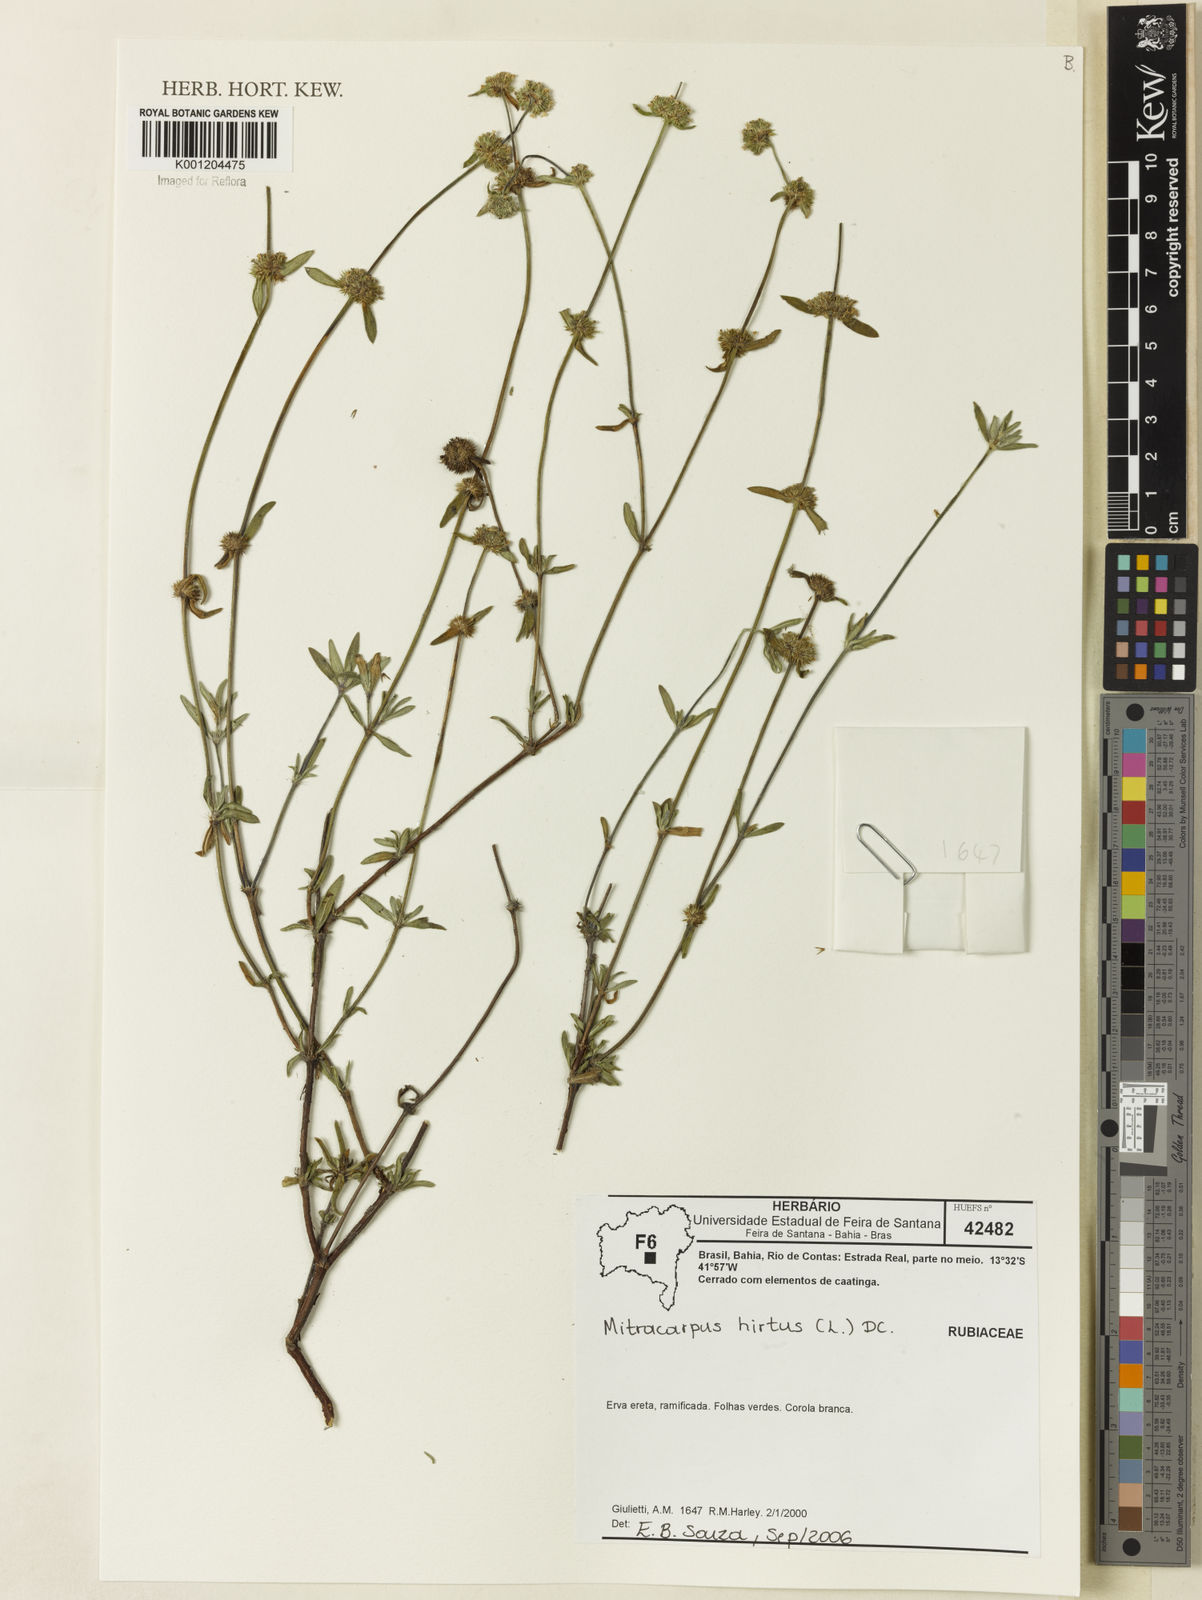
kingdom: Plantae
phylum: Tracheophyta
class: Magnoliopsida
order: Gentianales
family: Rubiaceae
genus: Mitracarpus
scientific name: Mitracarpus hirtus
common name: Tropical girdlepod
